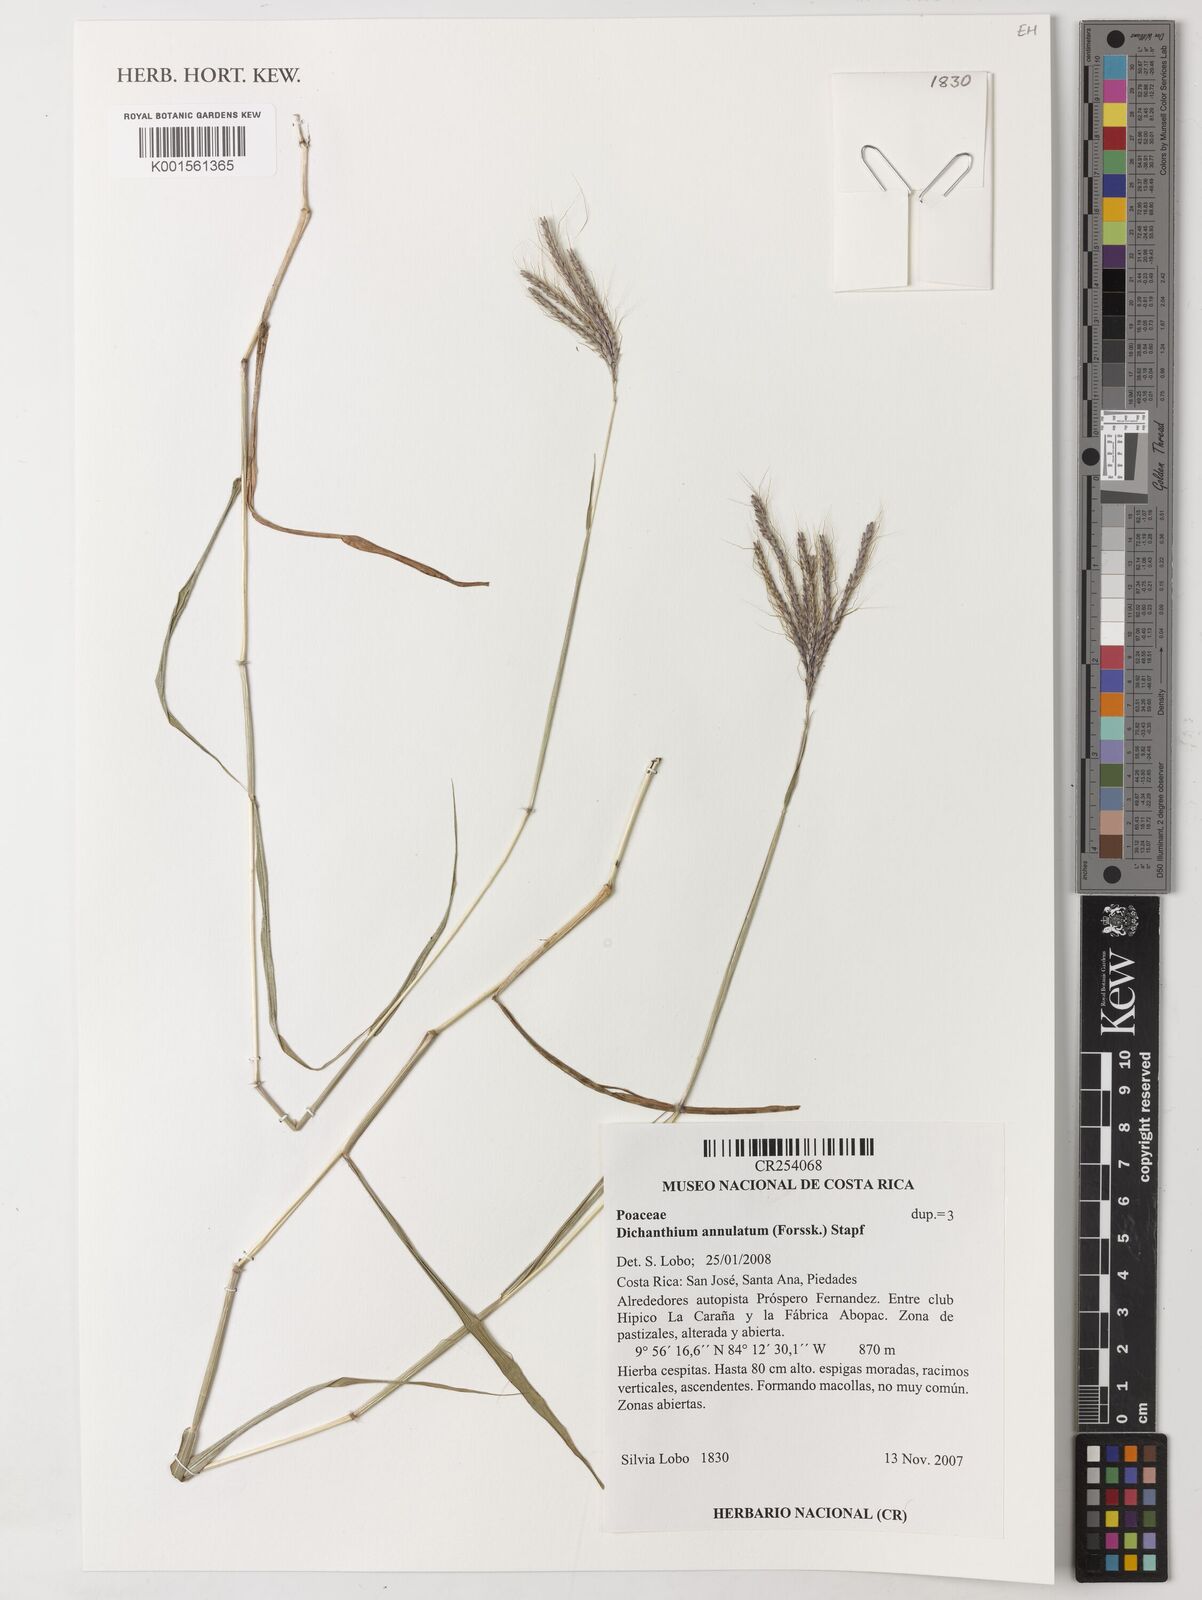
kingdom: Plantae
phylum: Tracheophyta
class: Liliopsida
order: Poales
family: Poaceae
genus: Dichanthium
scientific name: Dichanthium annulatum
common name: Kleberg's bluestem
